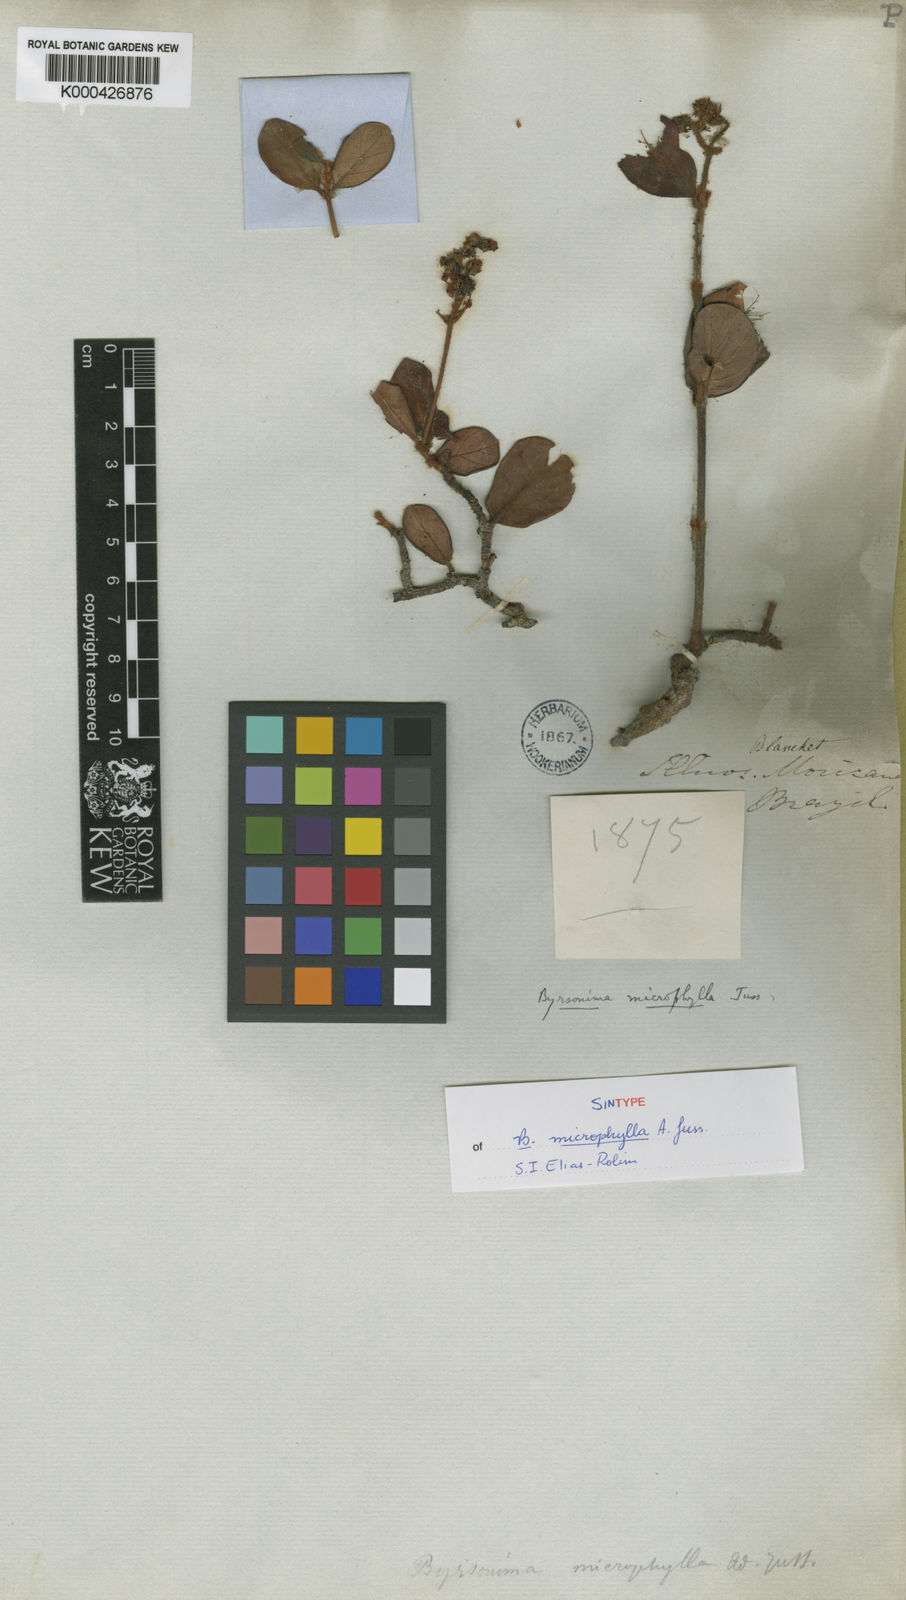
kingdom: Plantae
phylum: Tracheophyta
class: Magnoliopsida
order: Malpighiales
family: Malpighiaceae
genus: Byrsonima
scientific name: Byrsonima microphylla
